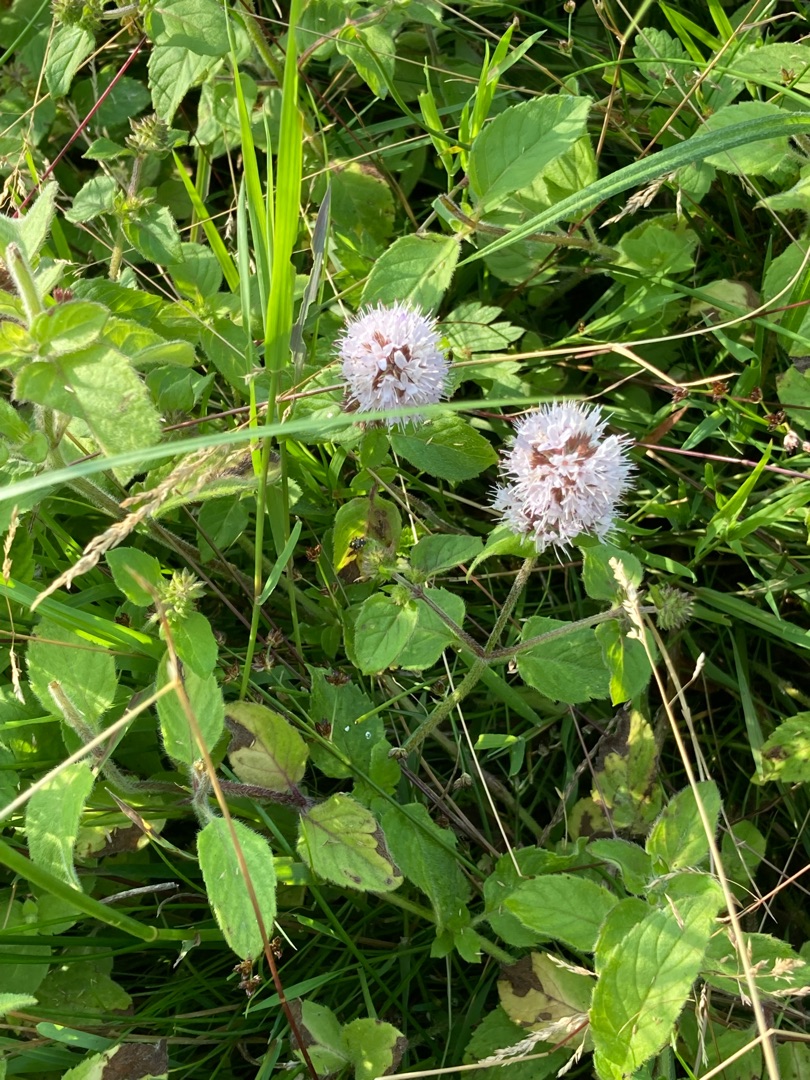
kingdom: Plantae
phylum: Tracheophyta
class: Magnoliopsida
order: Lamiales
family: Lamiaceae
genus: Mentha
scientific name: Mentha aquatica
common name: Vand-mynte
